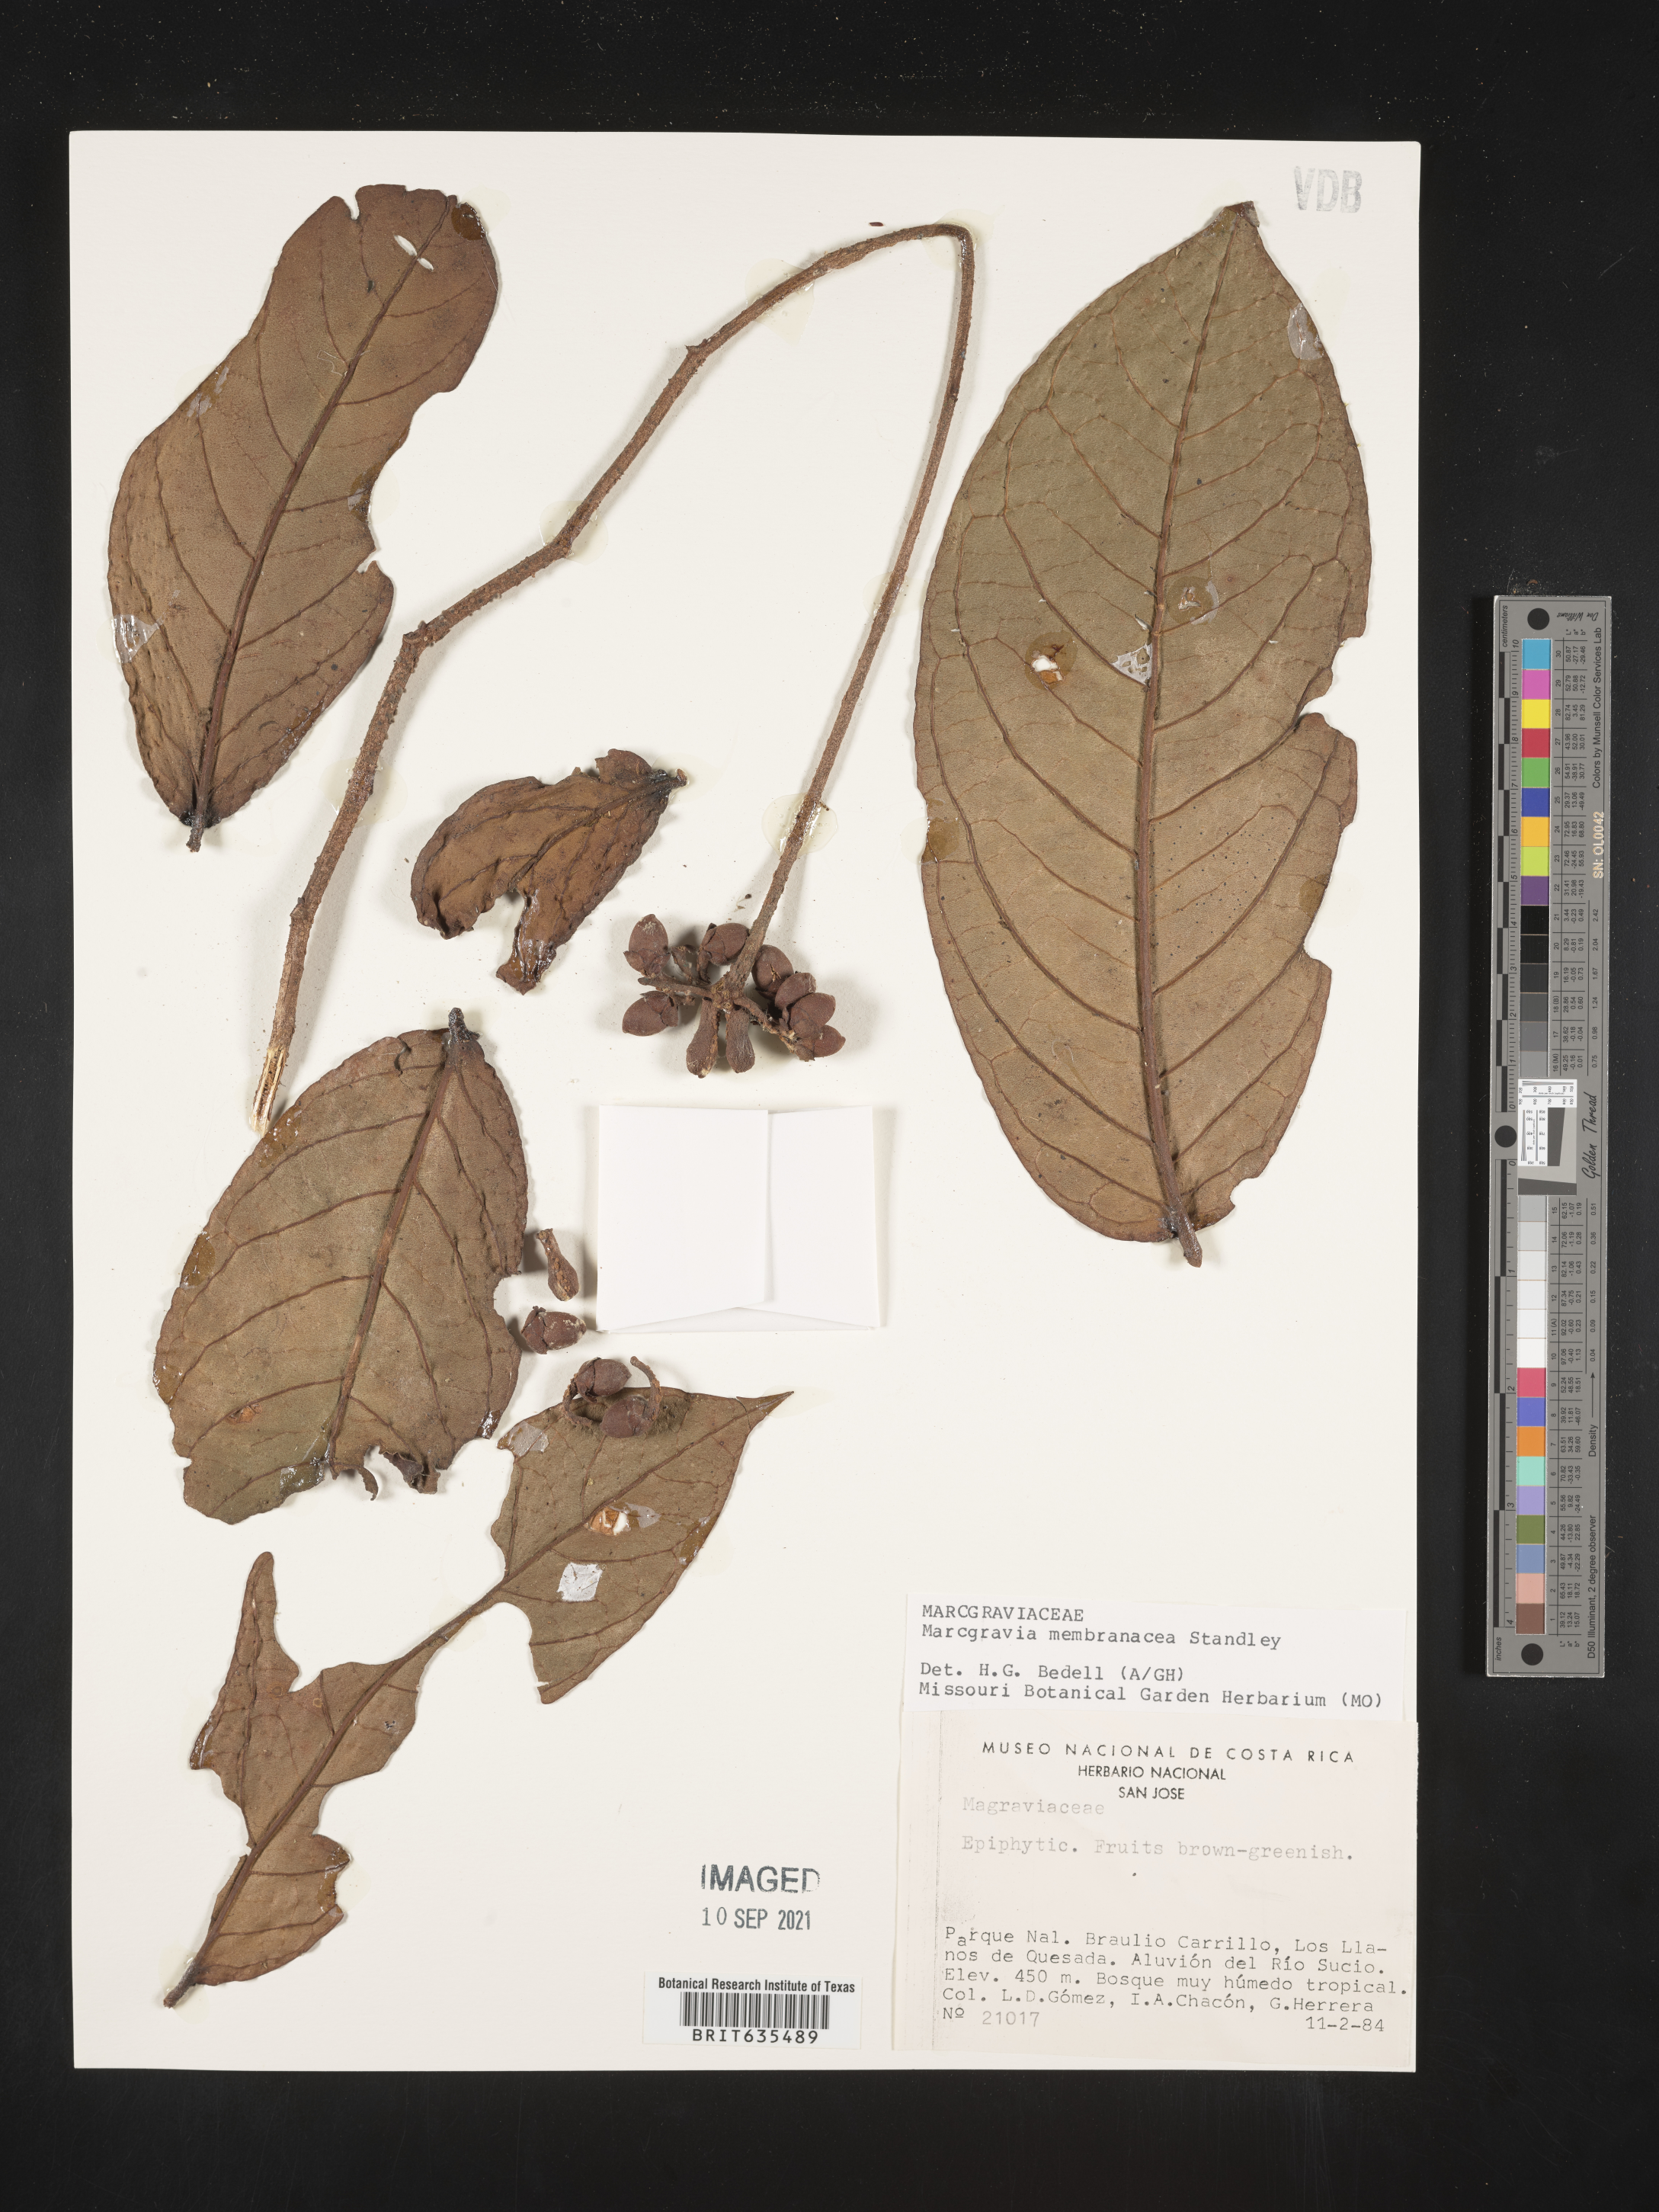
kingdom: Plantae
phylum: Tracheophyta
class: Magnoliopsida
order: Ericales
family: Marcgraviaceae
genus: Marcgravia
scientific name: Marcgravia
